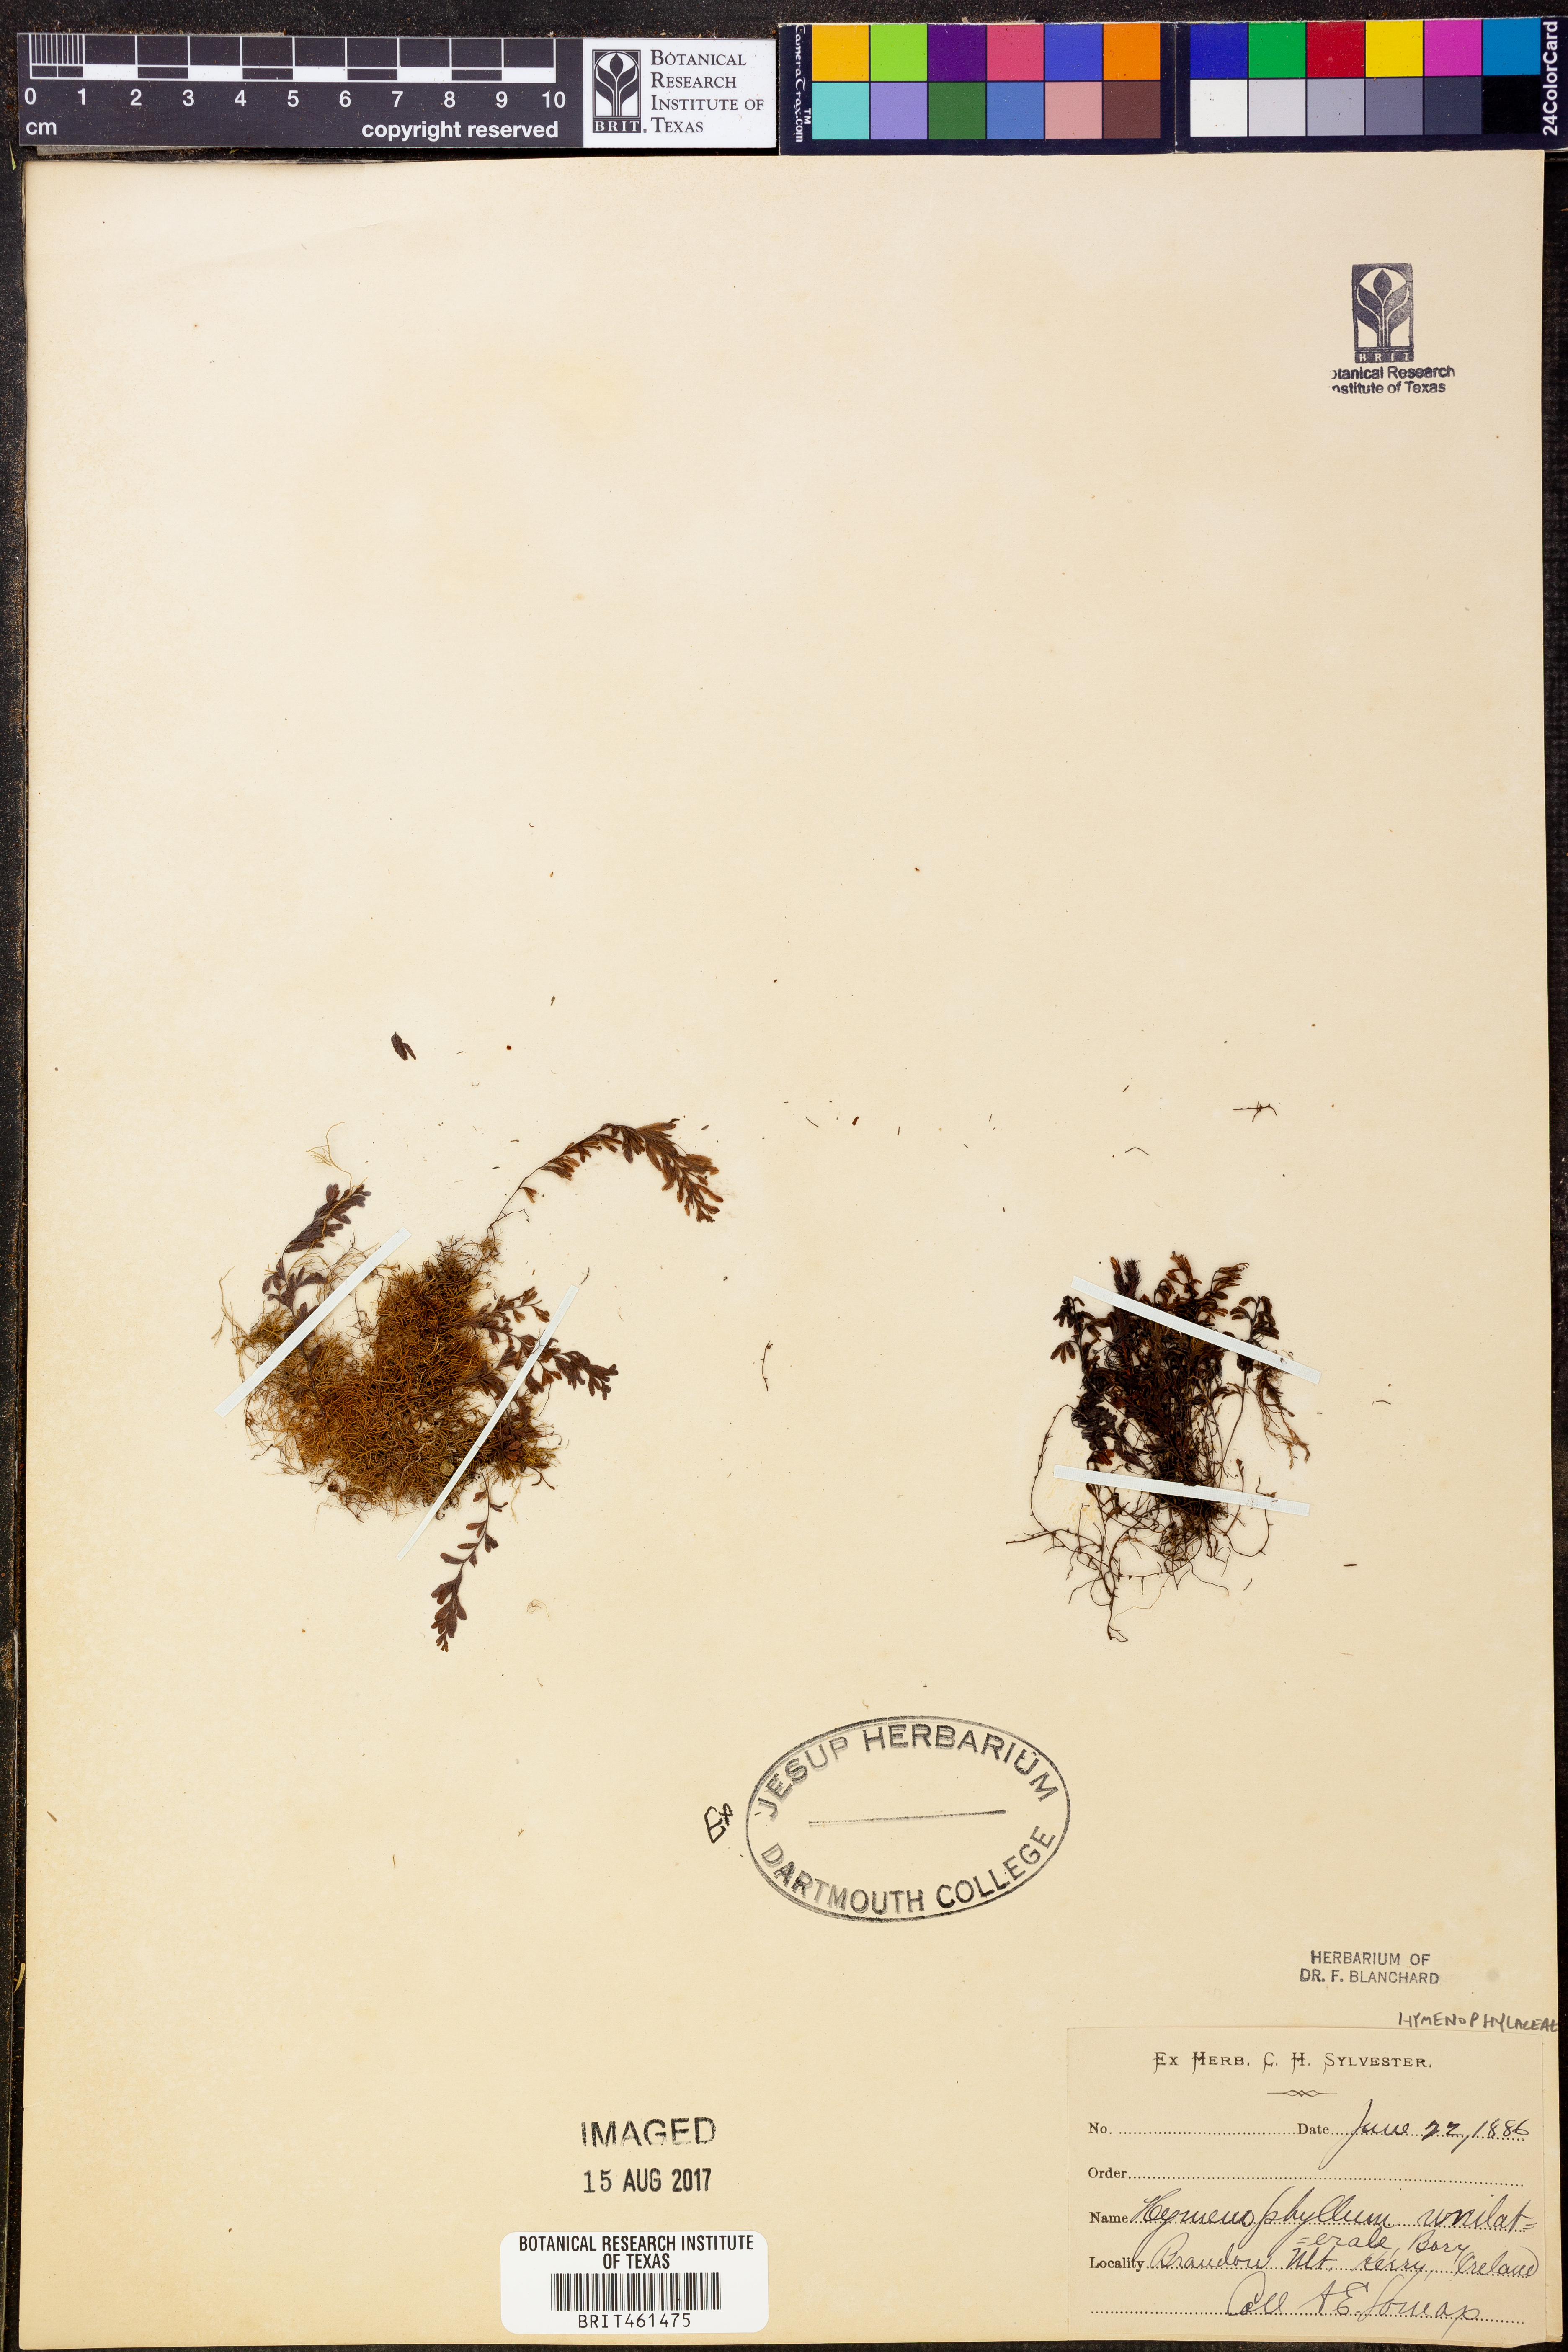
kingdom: Plantae
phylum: Tracheophyta
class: Polypodiopsida
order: Hymenophyllales
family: Hymenophyllaceae
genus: Hymenophyllum
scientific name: Hymenophyllum peltatum
